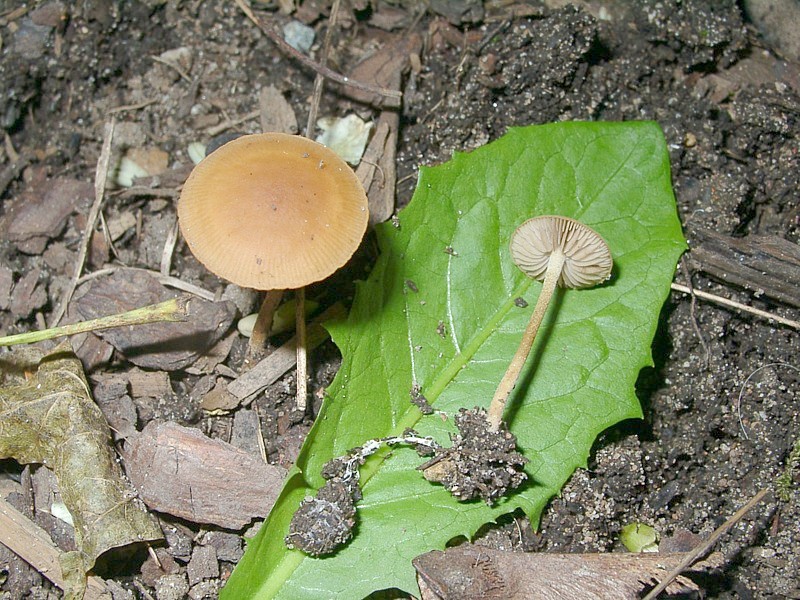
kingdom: Fungi
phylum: Basidiomycota
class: Agaricomycetes
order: Agaricales
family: Strophariaceae
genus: Agrocybe
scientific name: Agrocybe arvalis
